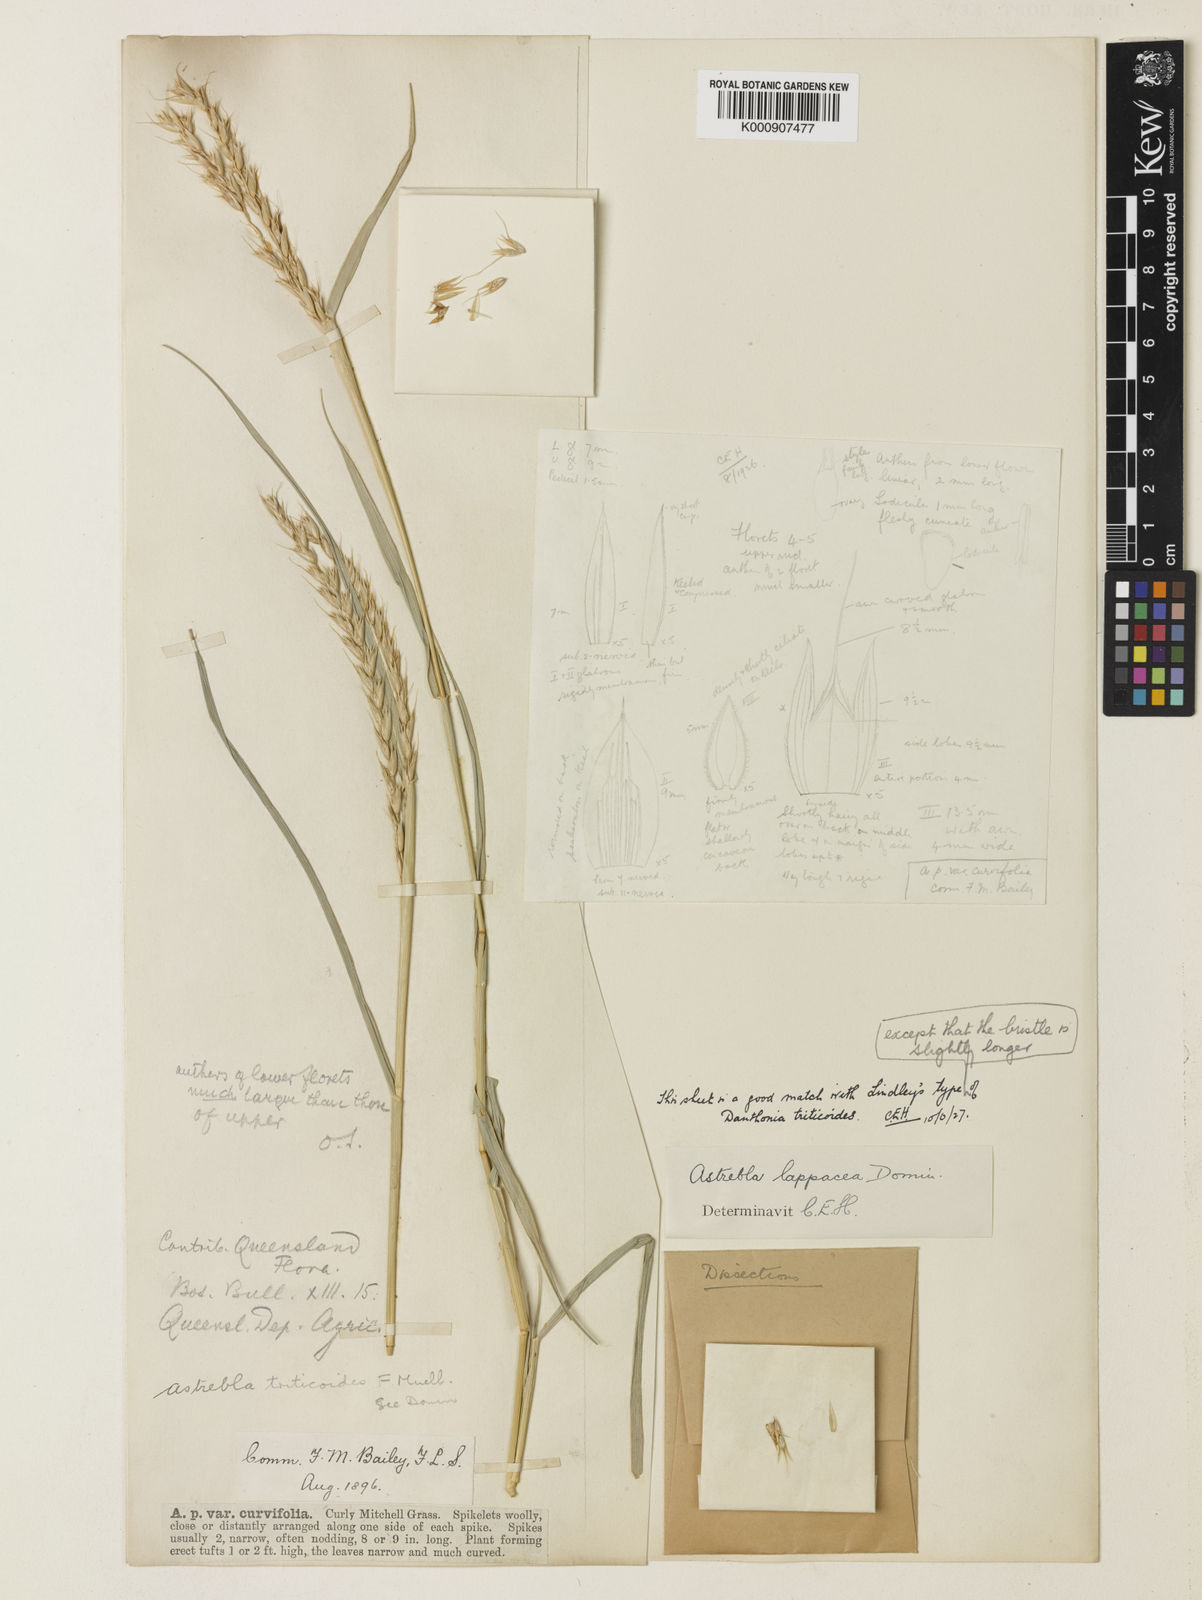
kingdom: Plantae
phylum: Tracheophyta
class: Liliopsida
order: Poales
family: Poaceae
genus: Astrebla
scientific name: Astrebla lappacea
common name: Curly mitchell grass
